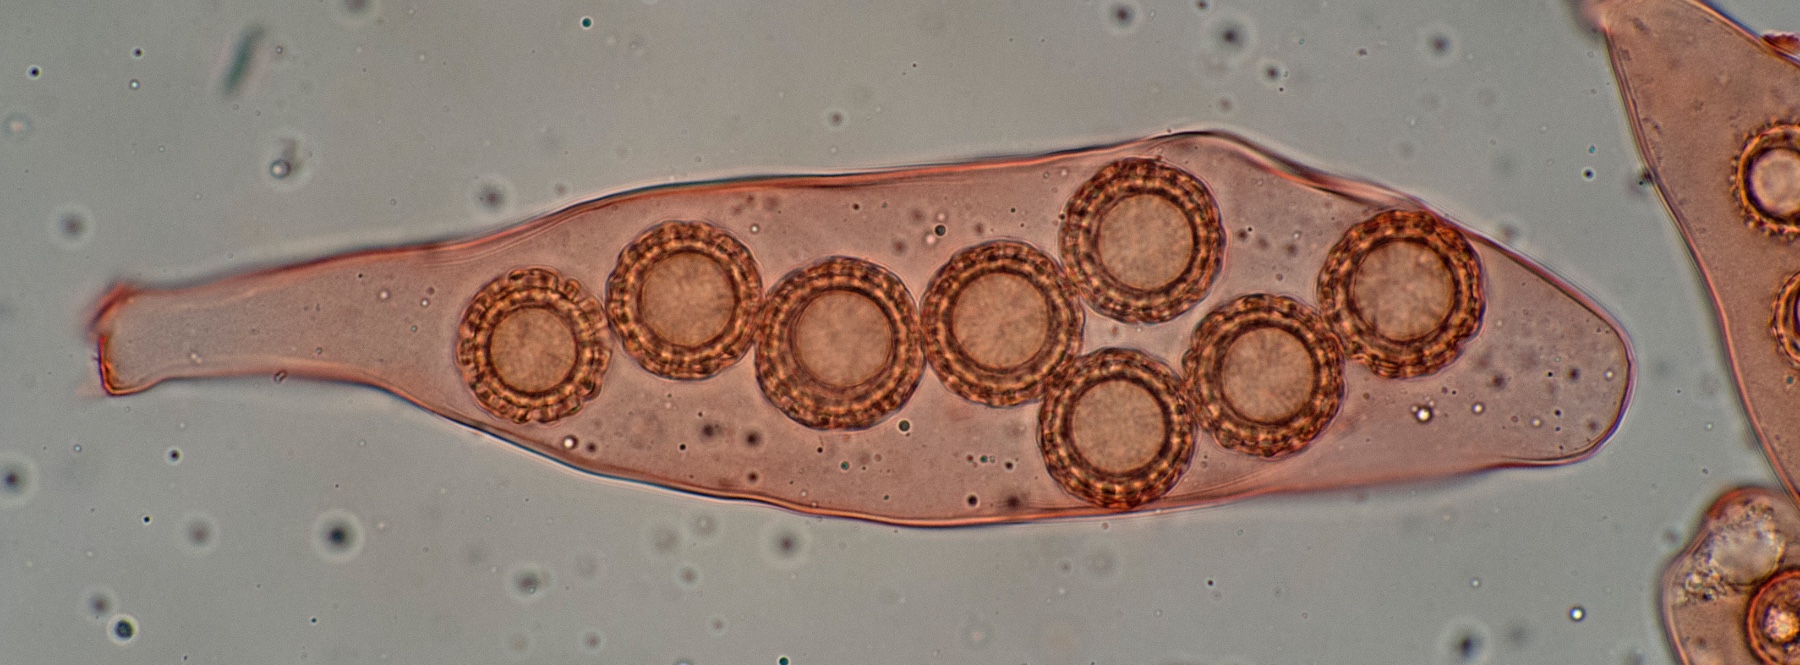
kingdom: Fungi
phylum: Ascomycota
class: Pezizomycetes
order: Pezizales
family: Pezizaceae
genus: Pachyphlodes
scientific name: Pachyphlodes conglomerata
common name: glat kratertrøffel
